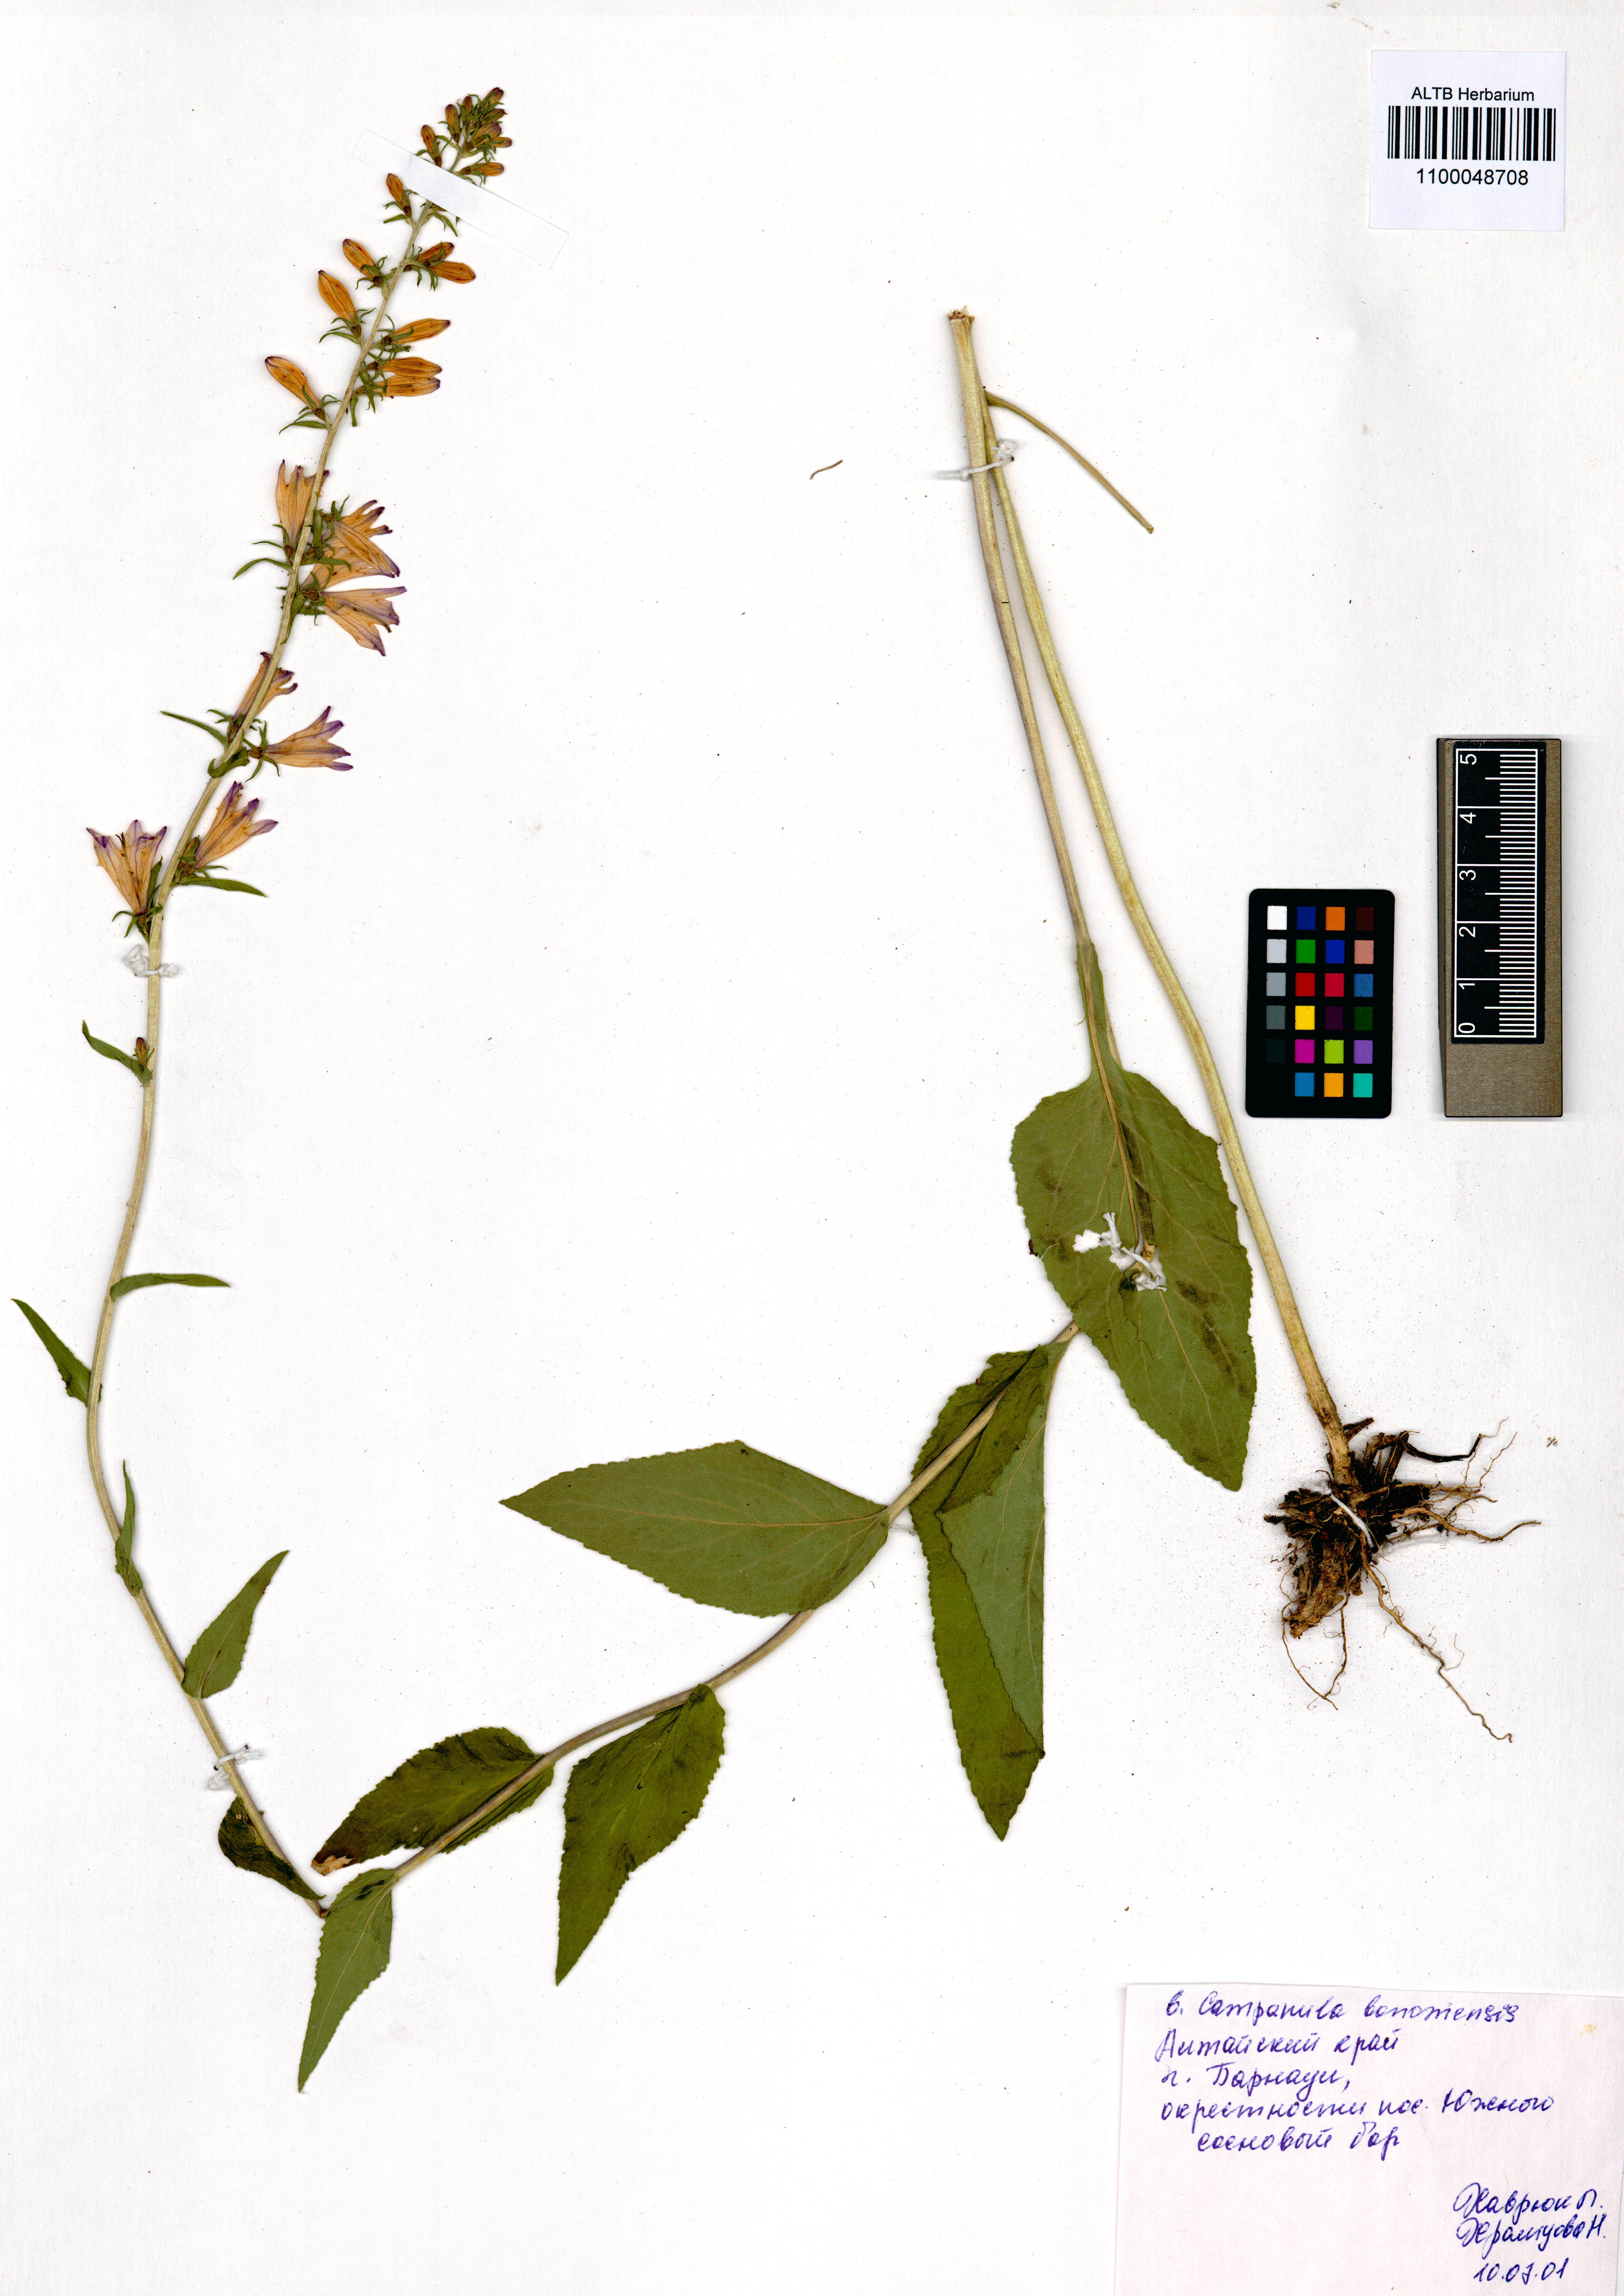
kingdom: Plantae
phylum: Tracheophyta
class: Magnoliopsida
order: Asterales
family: Campanulaceae
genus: Campanula
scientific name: Campanula bononiensis
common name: Pale bellflower
